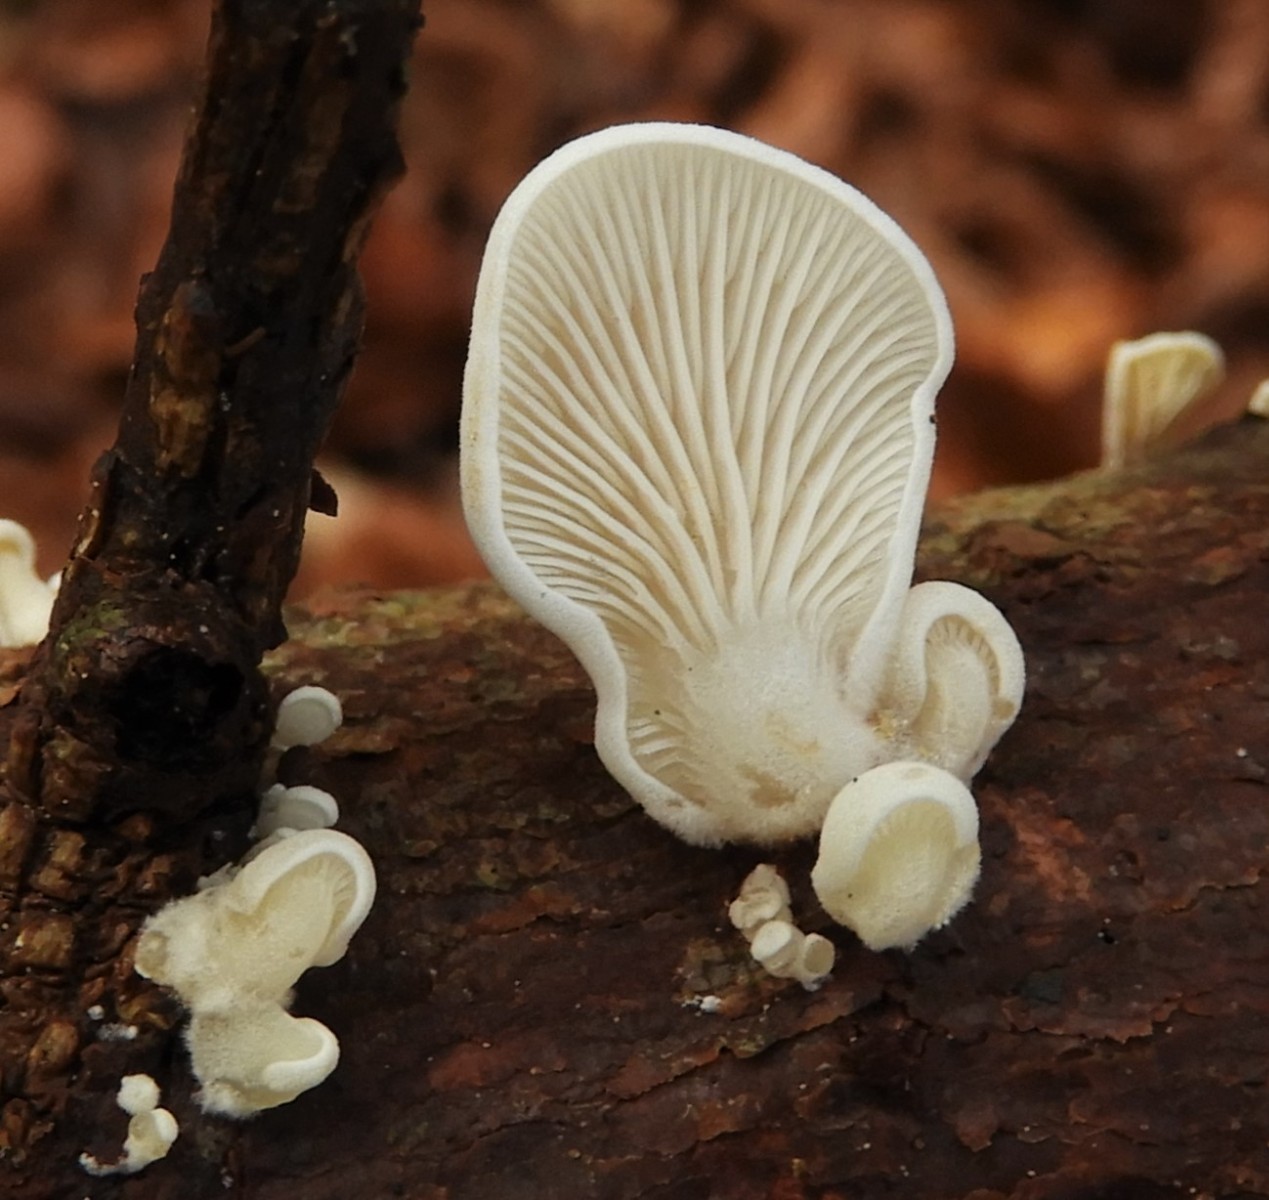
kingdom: Fungi
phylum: Basidiomycota
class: Agaricomycetes
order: Agaricales
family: Mycenaceae
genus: Panellus
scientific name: Panellus mitis
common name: mild epaulethat
